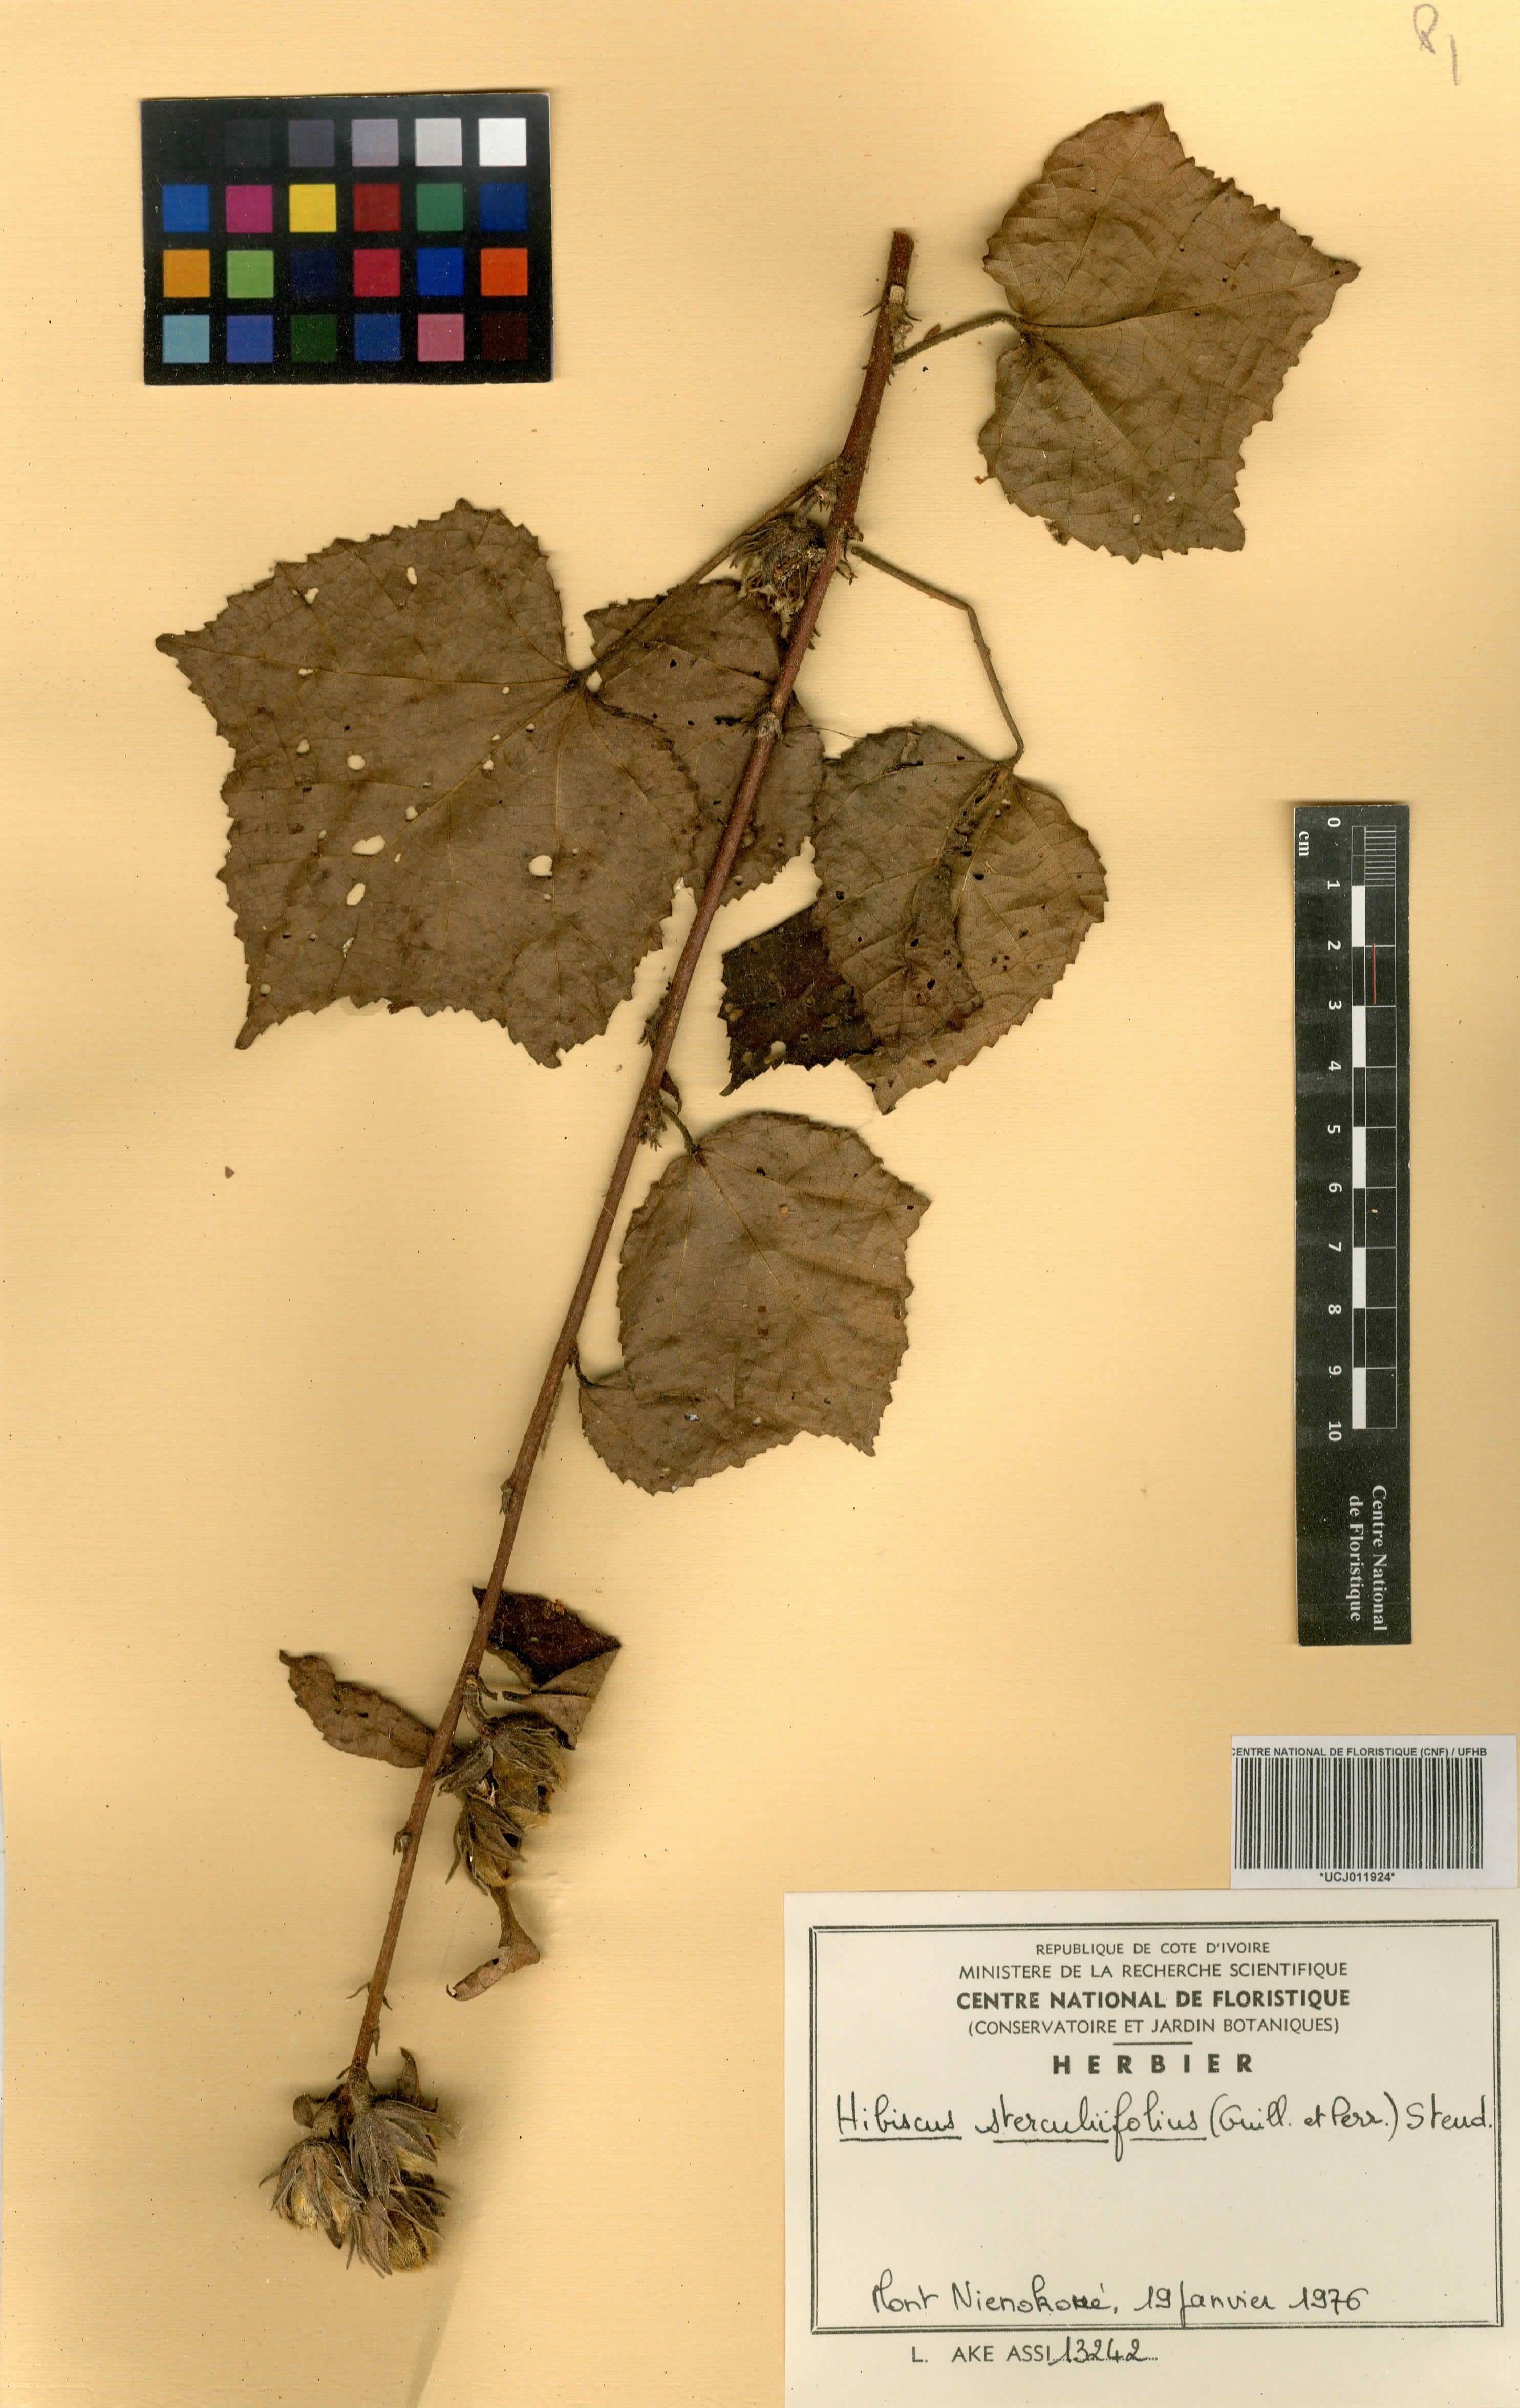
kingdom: Plantae
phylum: Tracheophyta
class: Magnoliopsida
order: Malvales
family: Malvaceae
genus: Hibiscus
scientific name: Hibiscus sterculiifolius
